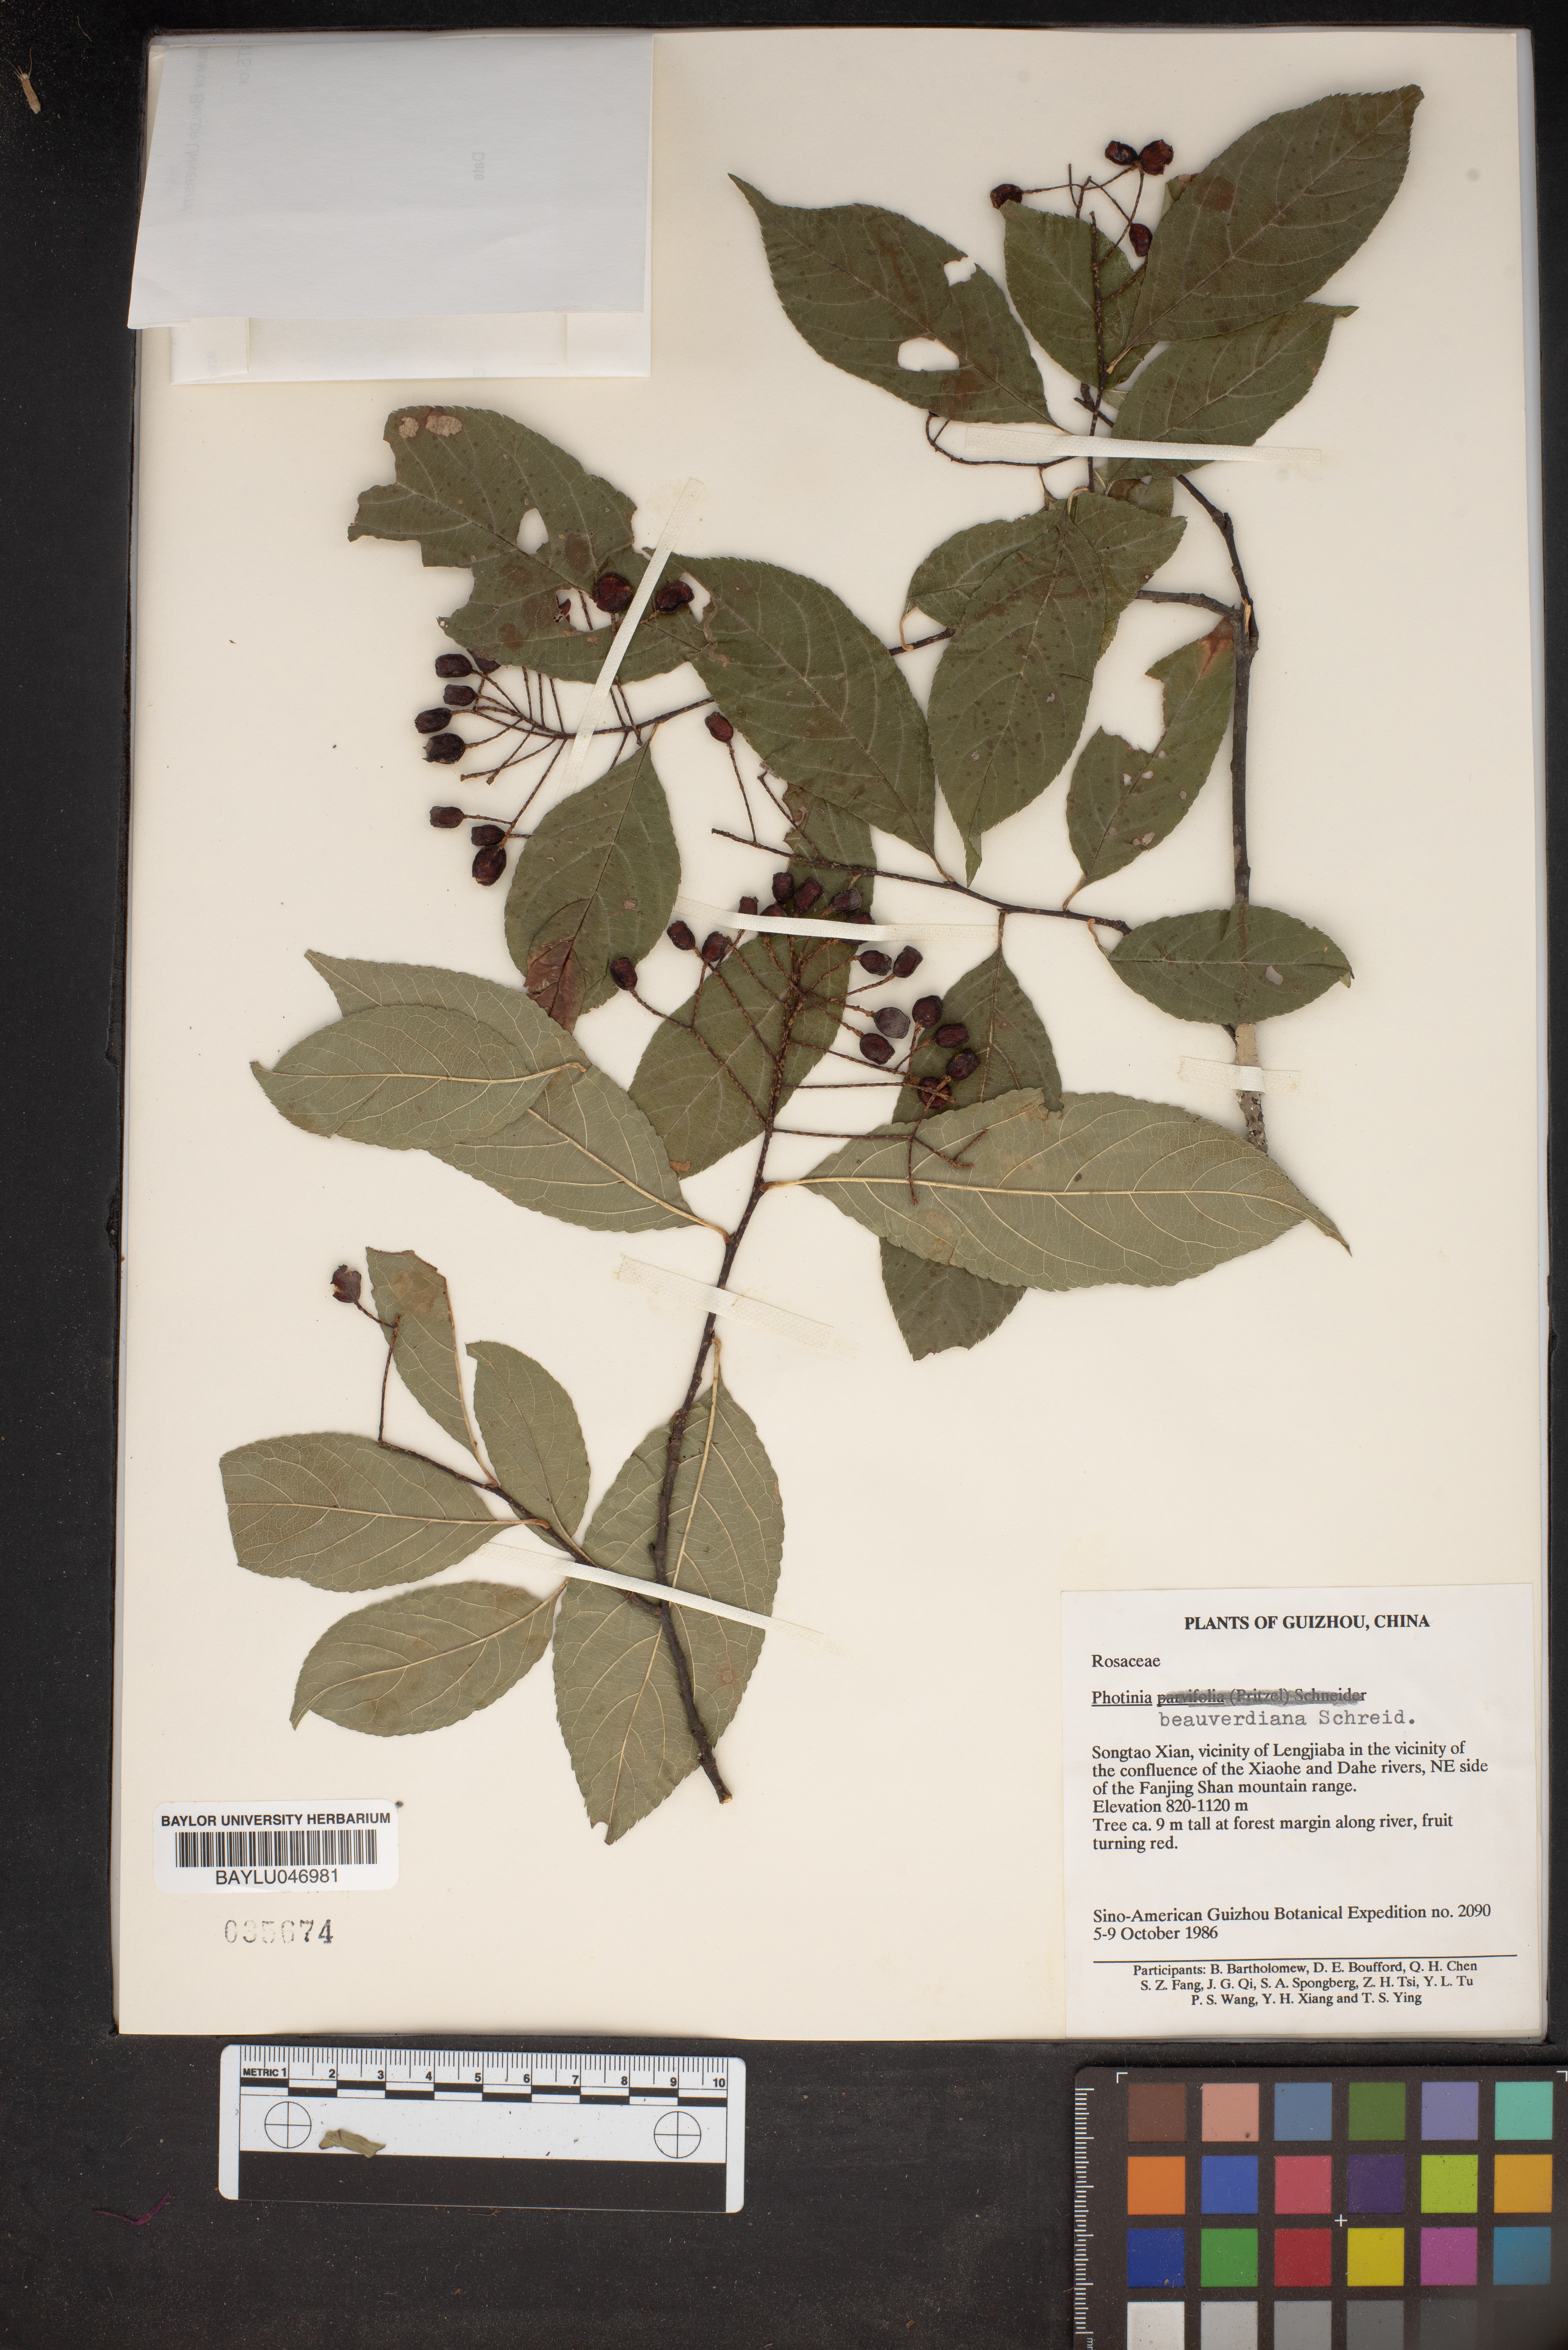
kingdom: Plantae
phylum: Tracheophyta
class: Magnoliopsida
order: Rosales
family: Rosaceae
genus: Pourthiaea
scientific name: Pourthiaea beauverdiana
